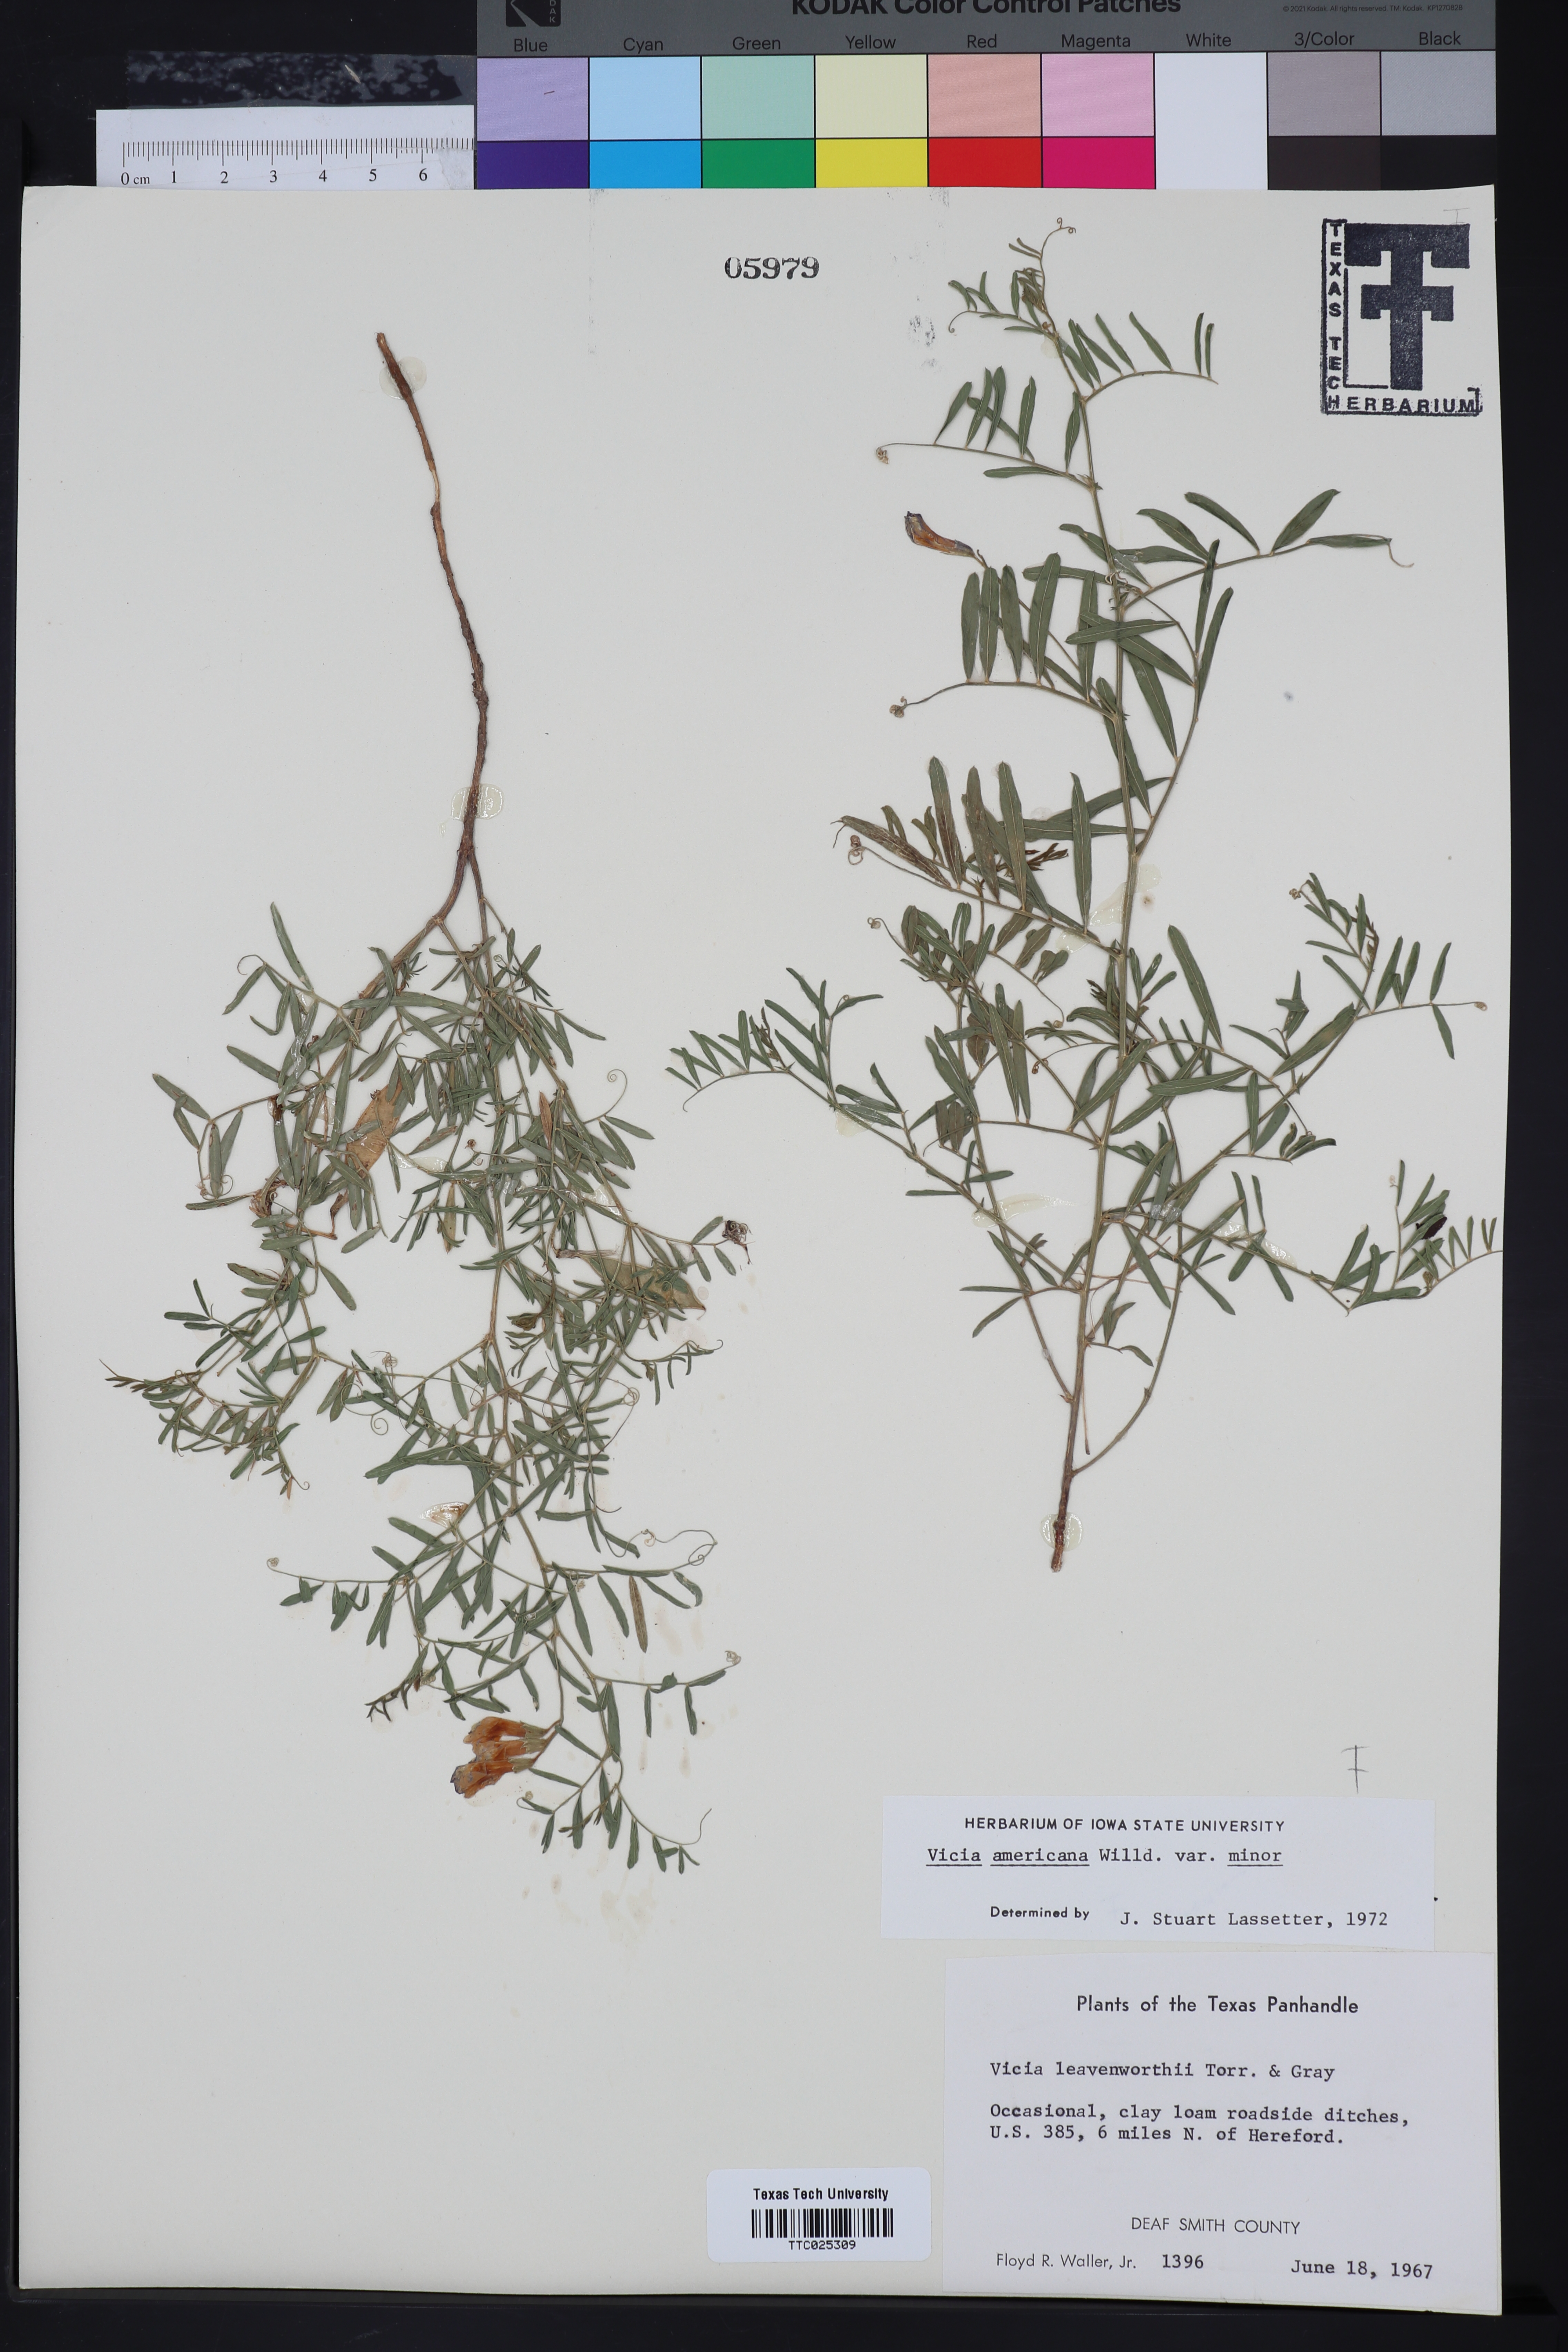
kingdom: Plantae
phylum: Tracheophyta
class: Magnoliopsida
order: Fabales
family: Fabaceae
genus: Vicia
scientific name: Vicia americana
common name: American vetch
